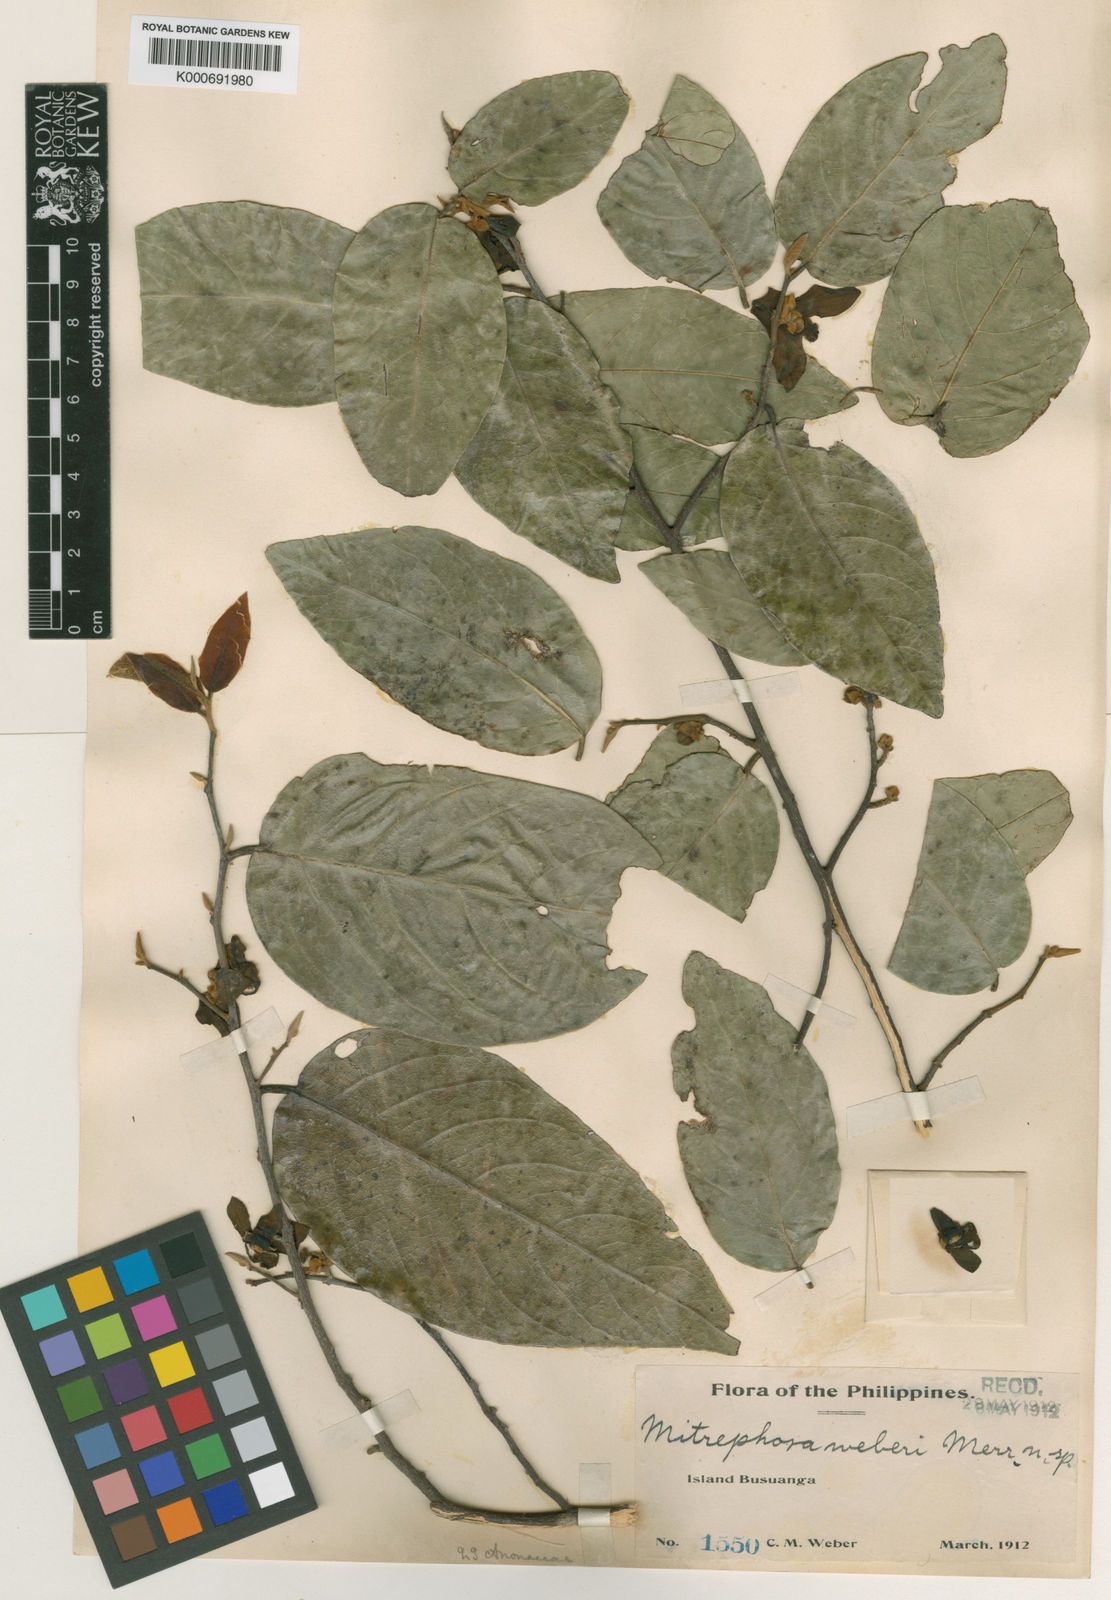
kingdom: Plantae
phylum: Tracheophyta
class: Magnoliopsida
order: Magnoliales
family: Annonaceae
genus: Mitrephora
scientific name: Mitrephora weberi
